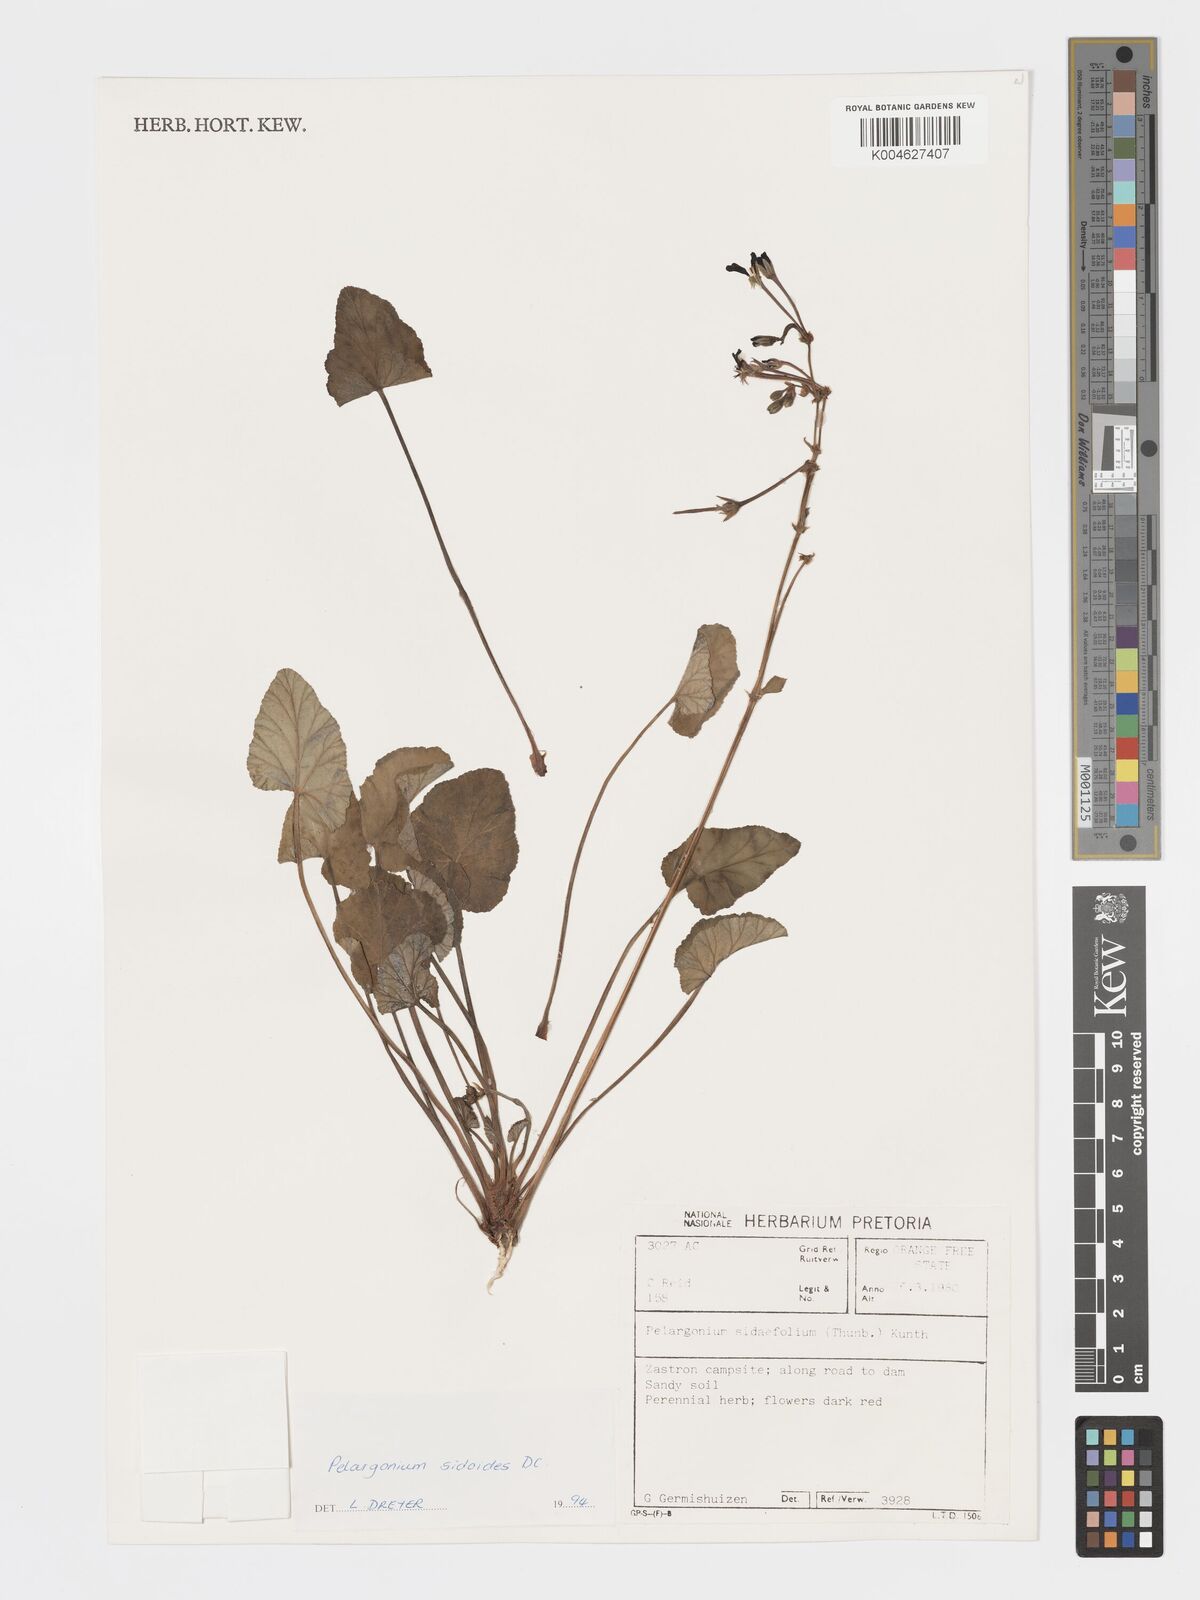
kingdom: Plantae
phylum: Tracheophyta
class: Magnoliopsida
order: Geraniales
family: Geraniaceae
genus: Pelargonium
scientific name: Pelargonium sidoides
